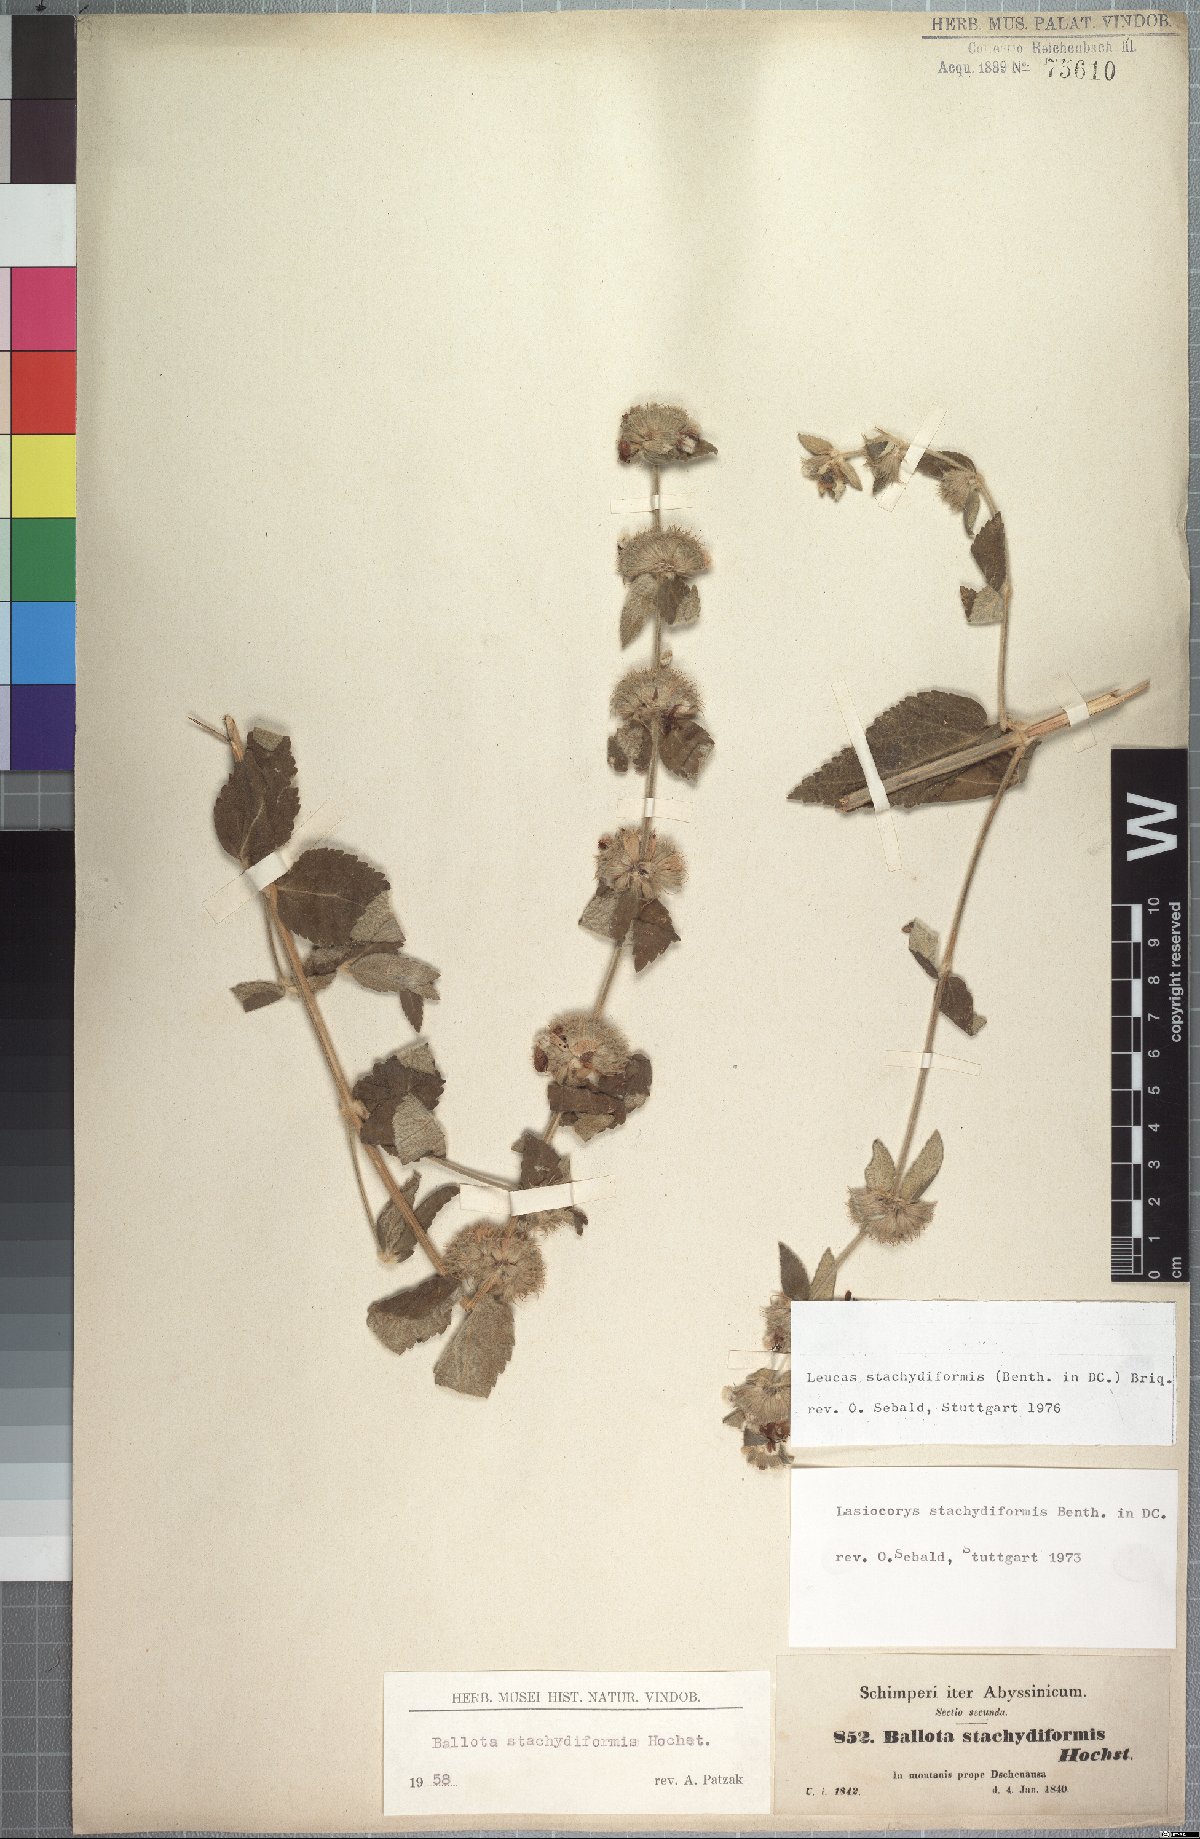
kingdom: Plantae
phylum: Tracheophyta
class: Magnoliopsida
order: Lamiales
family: Lamiaceae
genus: Leucas
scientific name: Leucas stachydiformis
